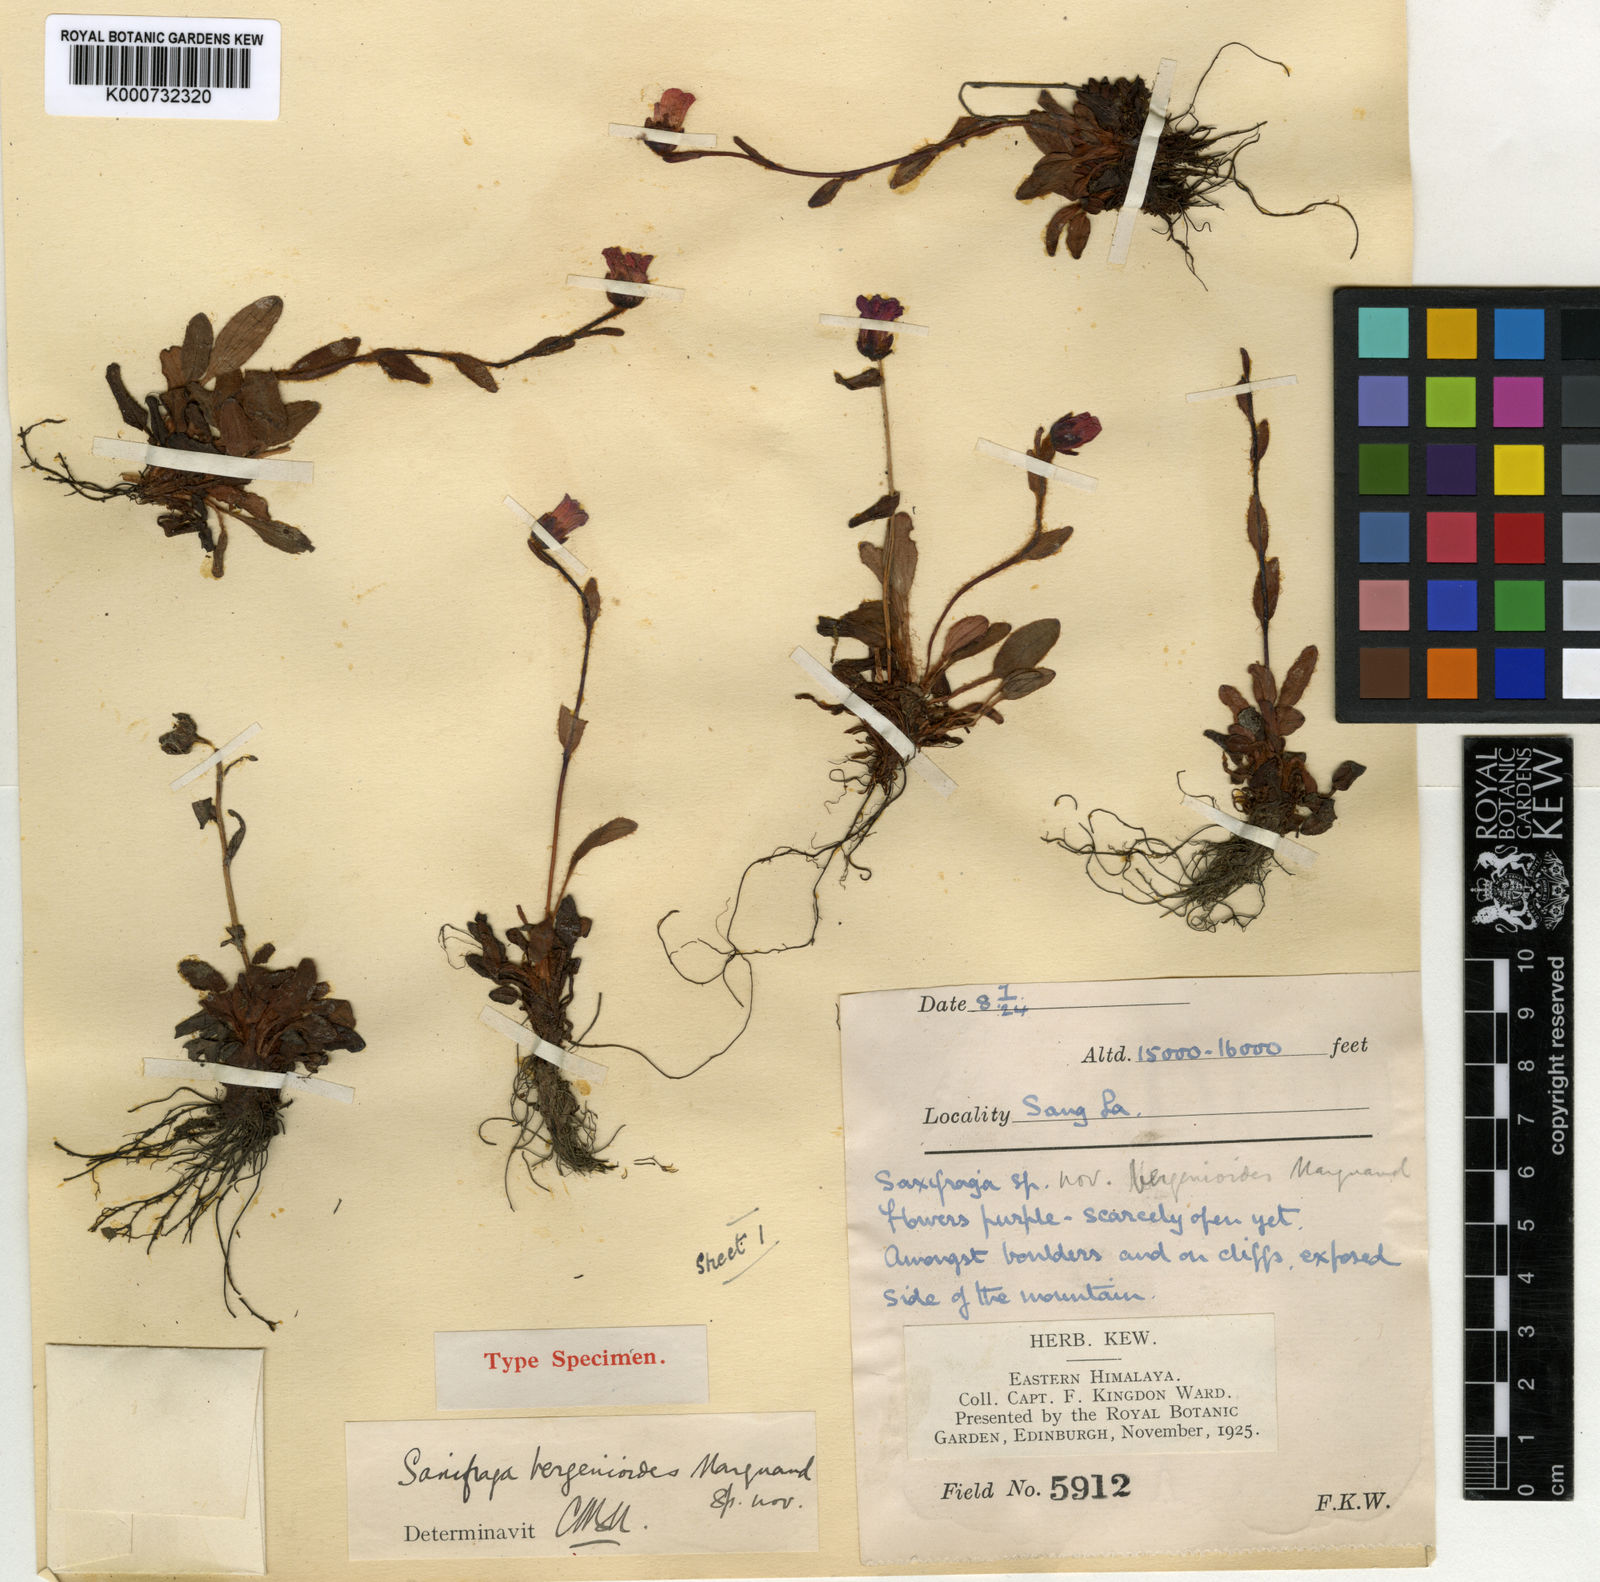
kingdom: Plantae
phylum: Tracheophyta
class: Magnoliopsida
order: Saxifragales
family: Saxifragaceae
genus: Saxifraga
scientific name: Saxifraga bergenioides
